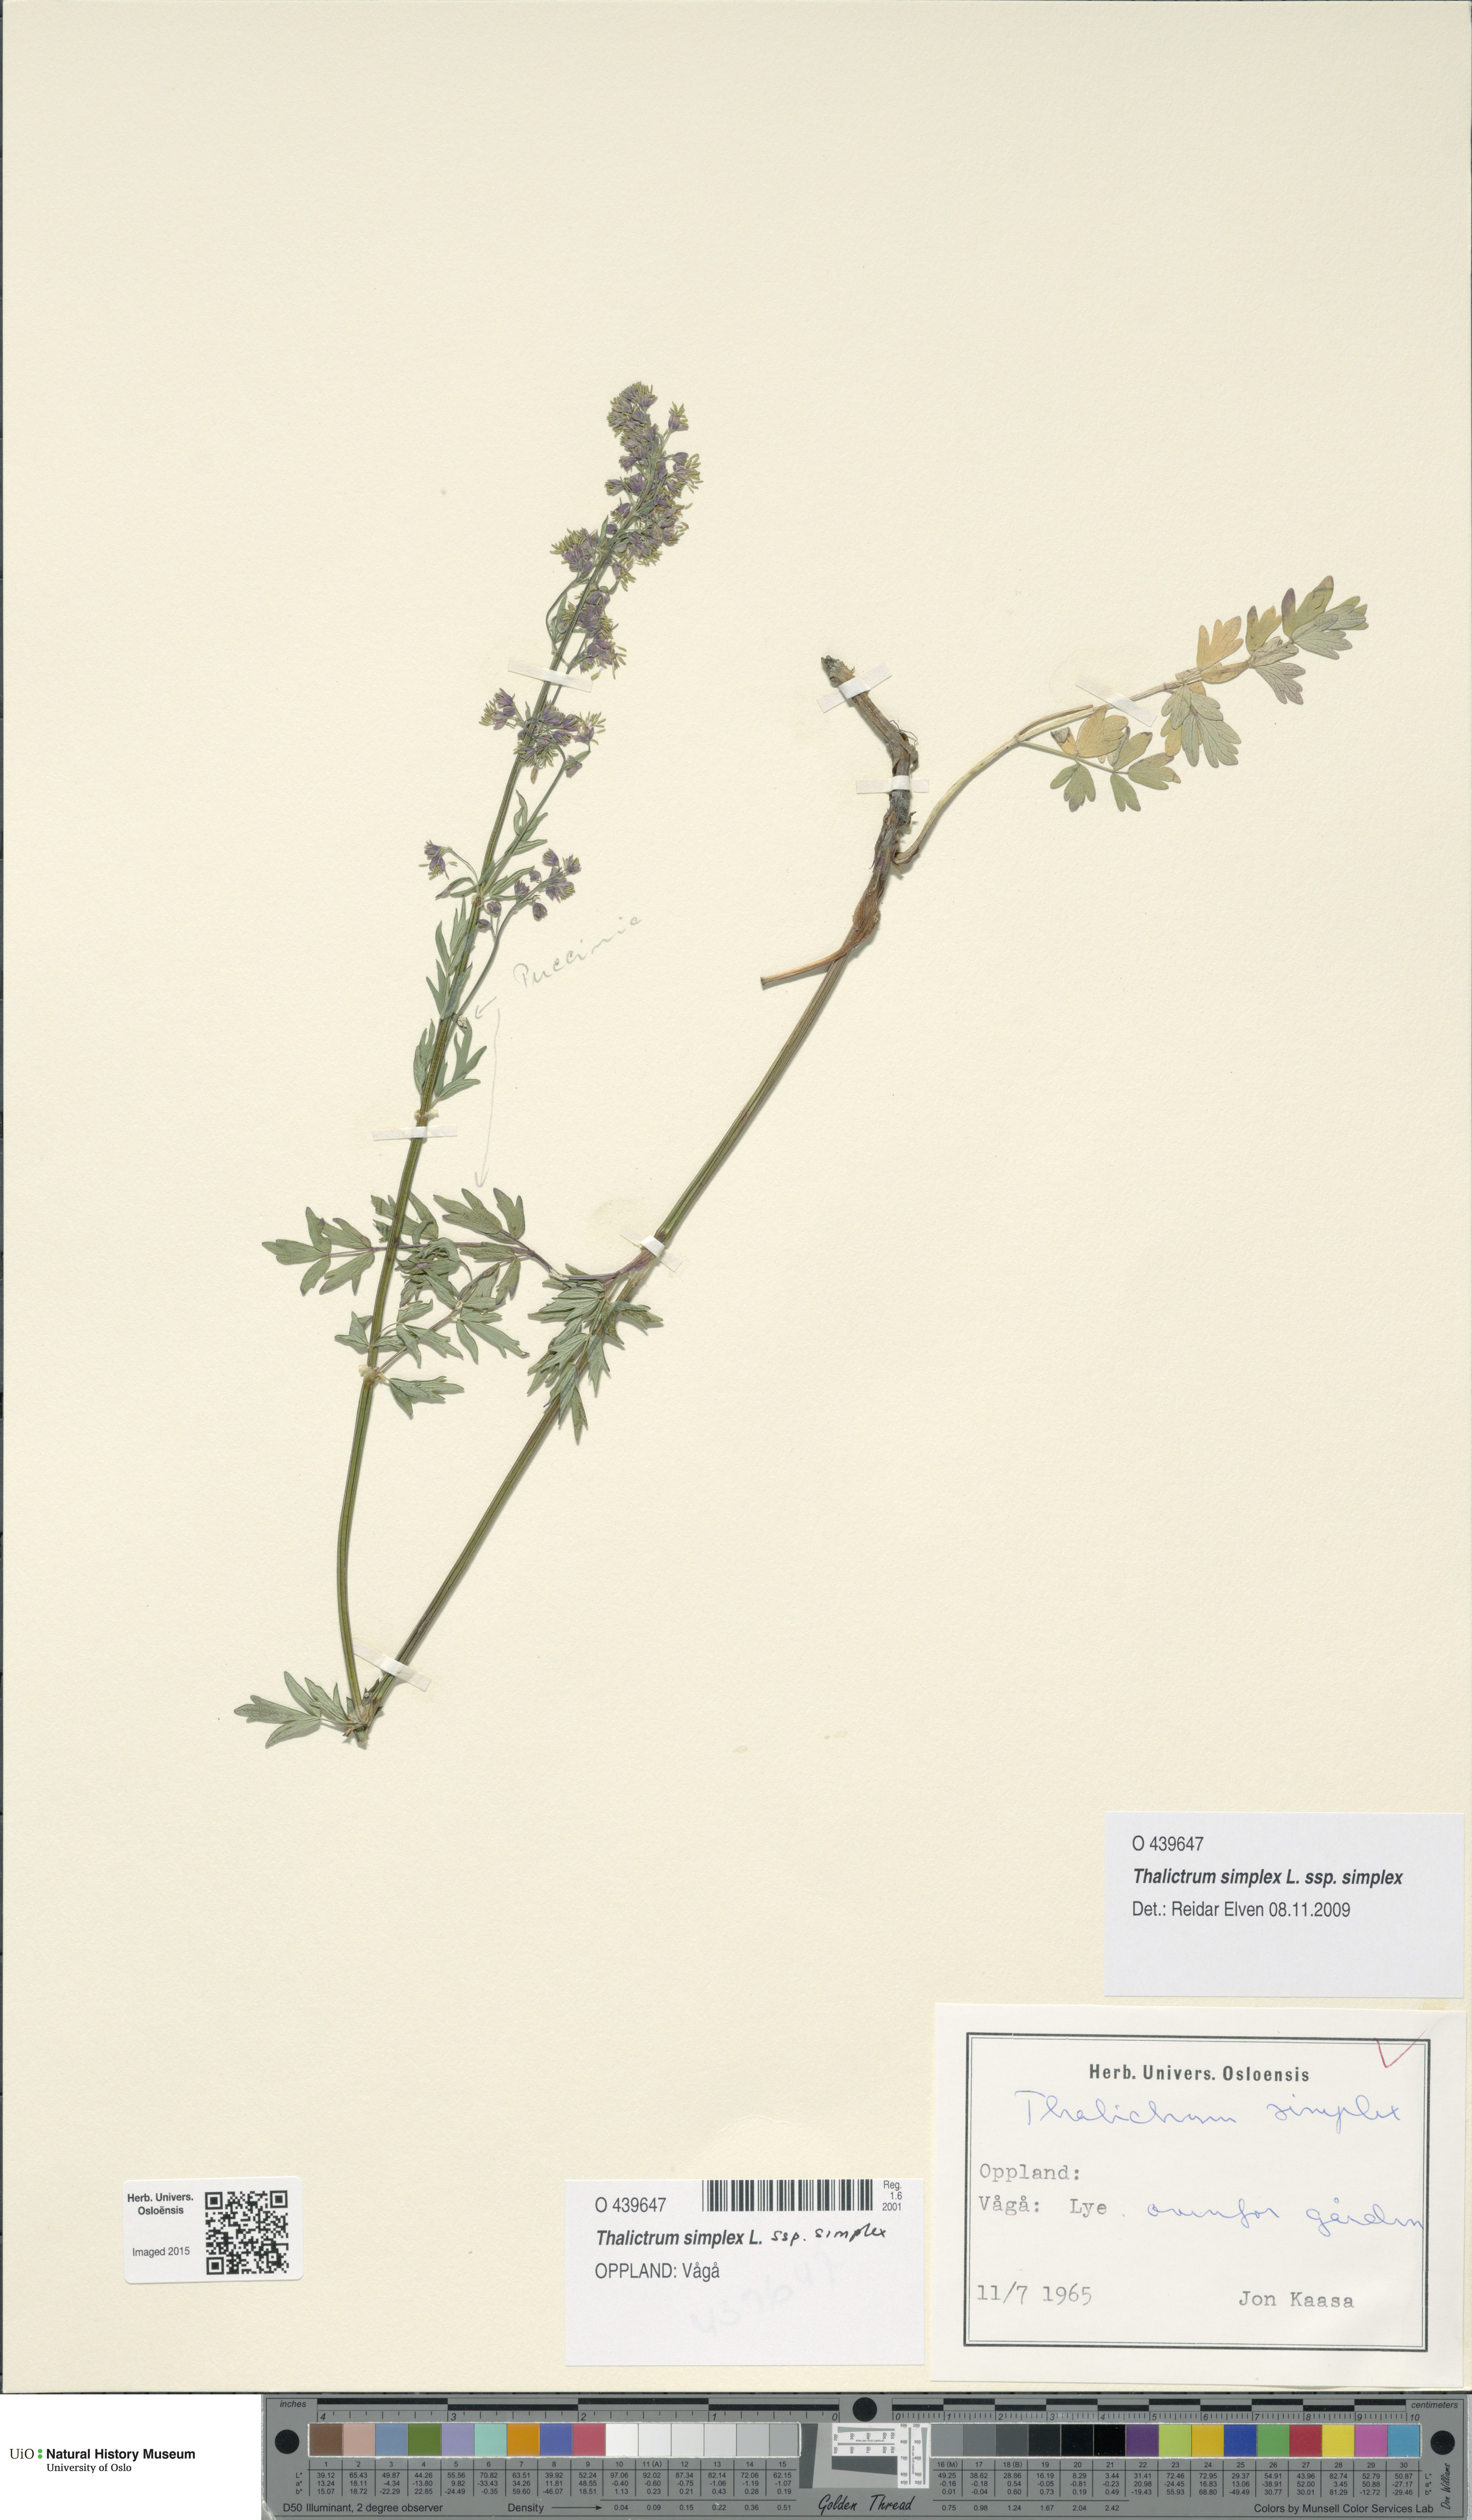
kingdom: Plantae
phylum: Tracheophyta
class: Magnoliopsida
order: Ranunculales
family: Ranunculaceae
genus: Thalictrum
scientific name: Thalictrum simplex
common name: Small meadow-rue
